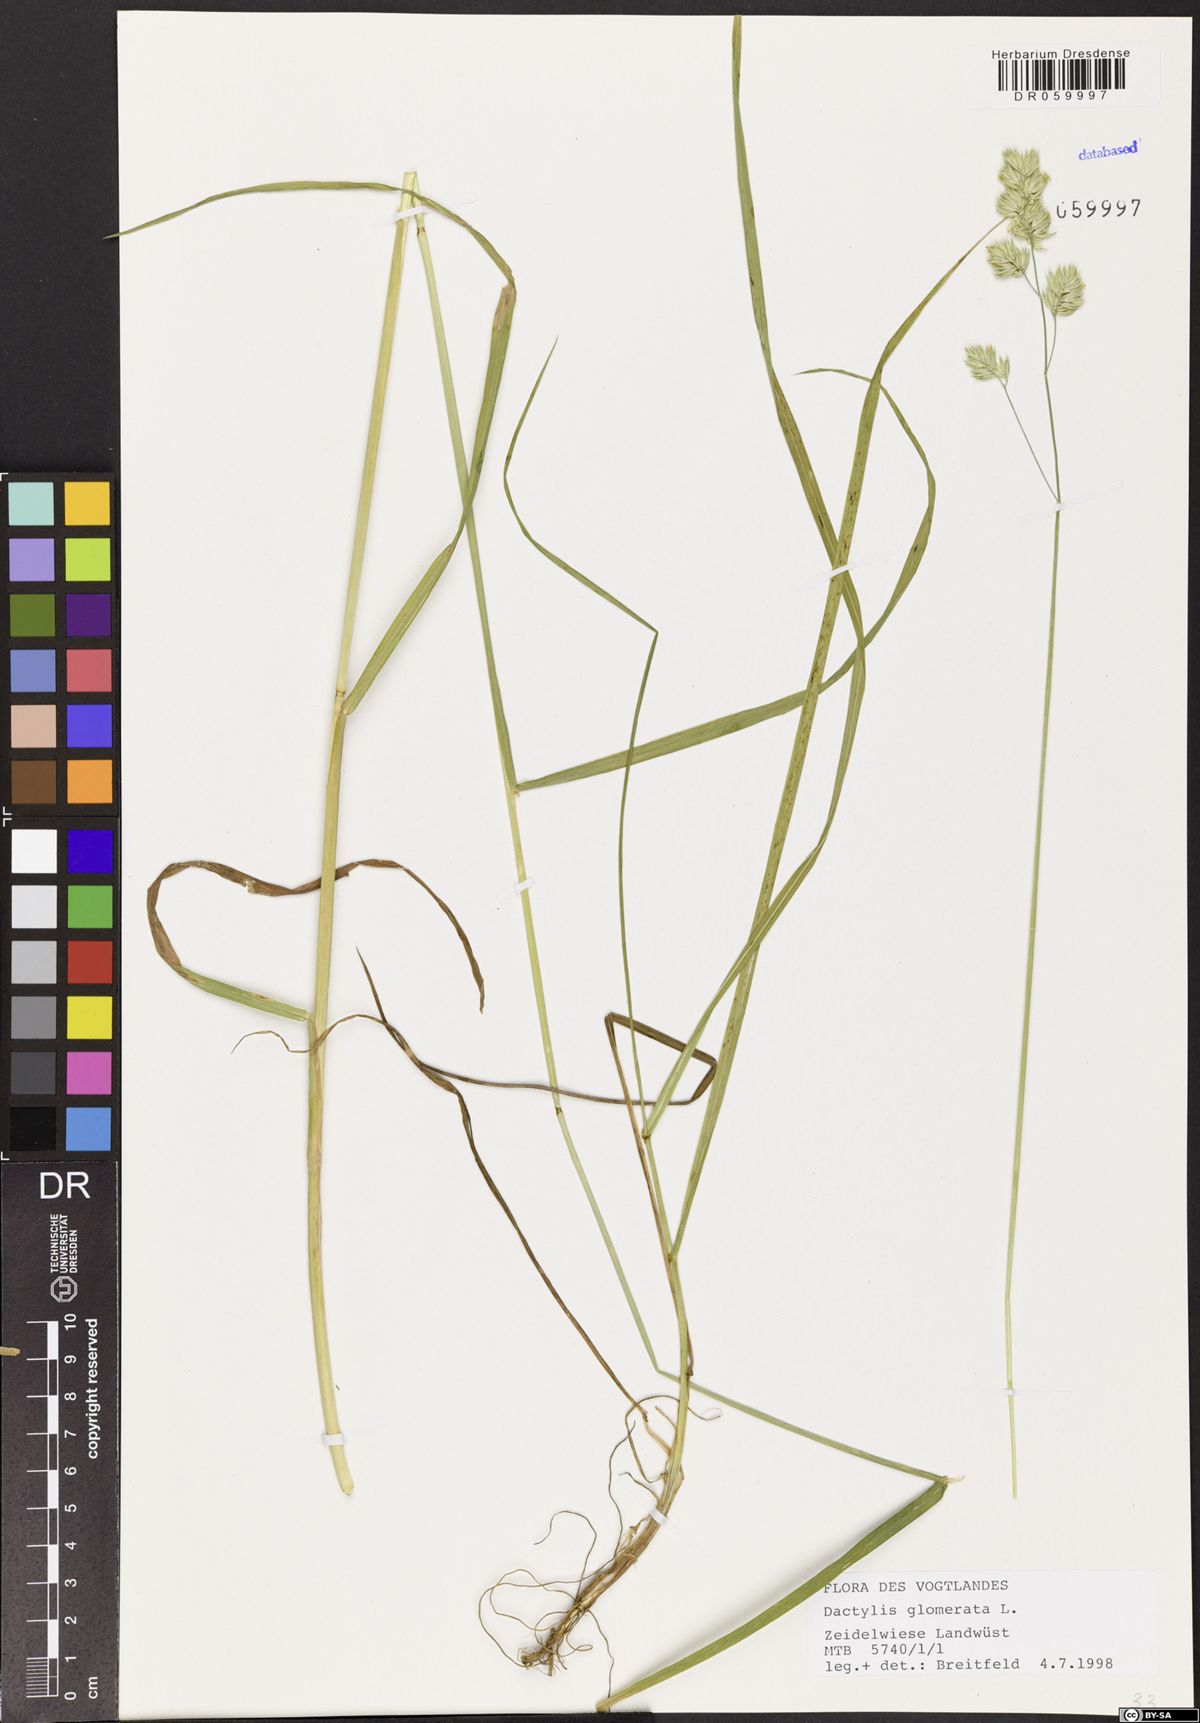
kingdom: Plantae
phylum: Tracheophyta
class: Liliopsida
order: Poales
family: Poaceae
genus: Dactylis
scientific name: Dactylis glomerata
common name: Orchardgrass
